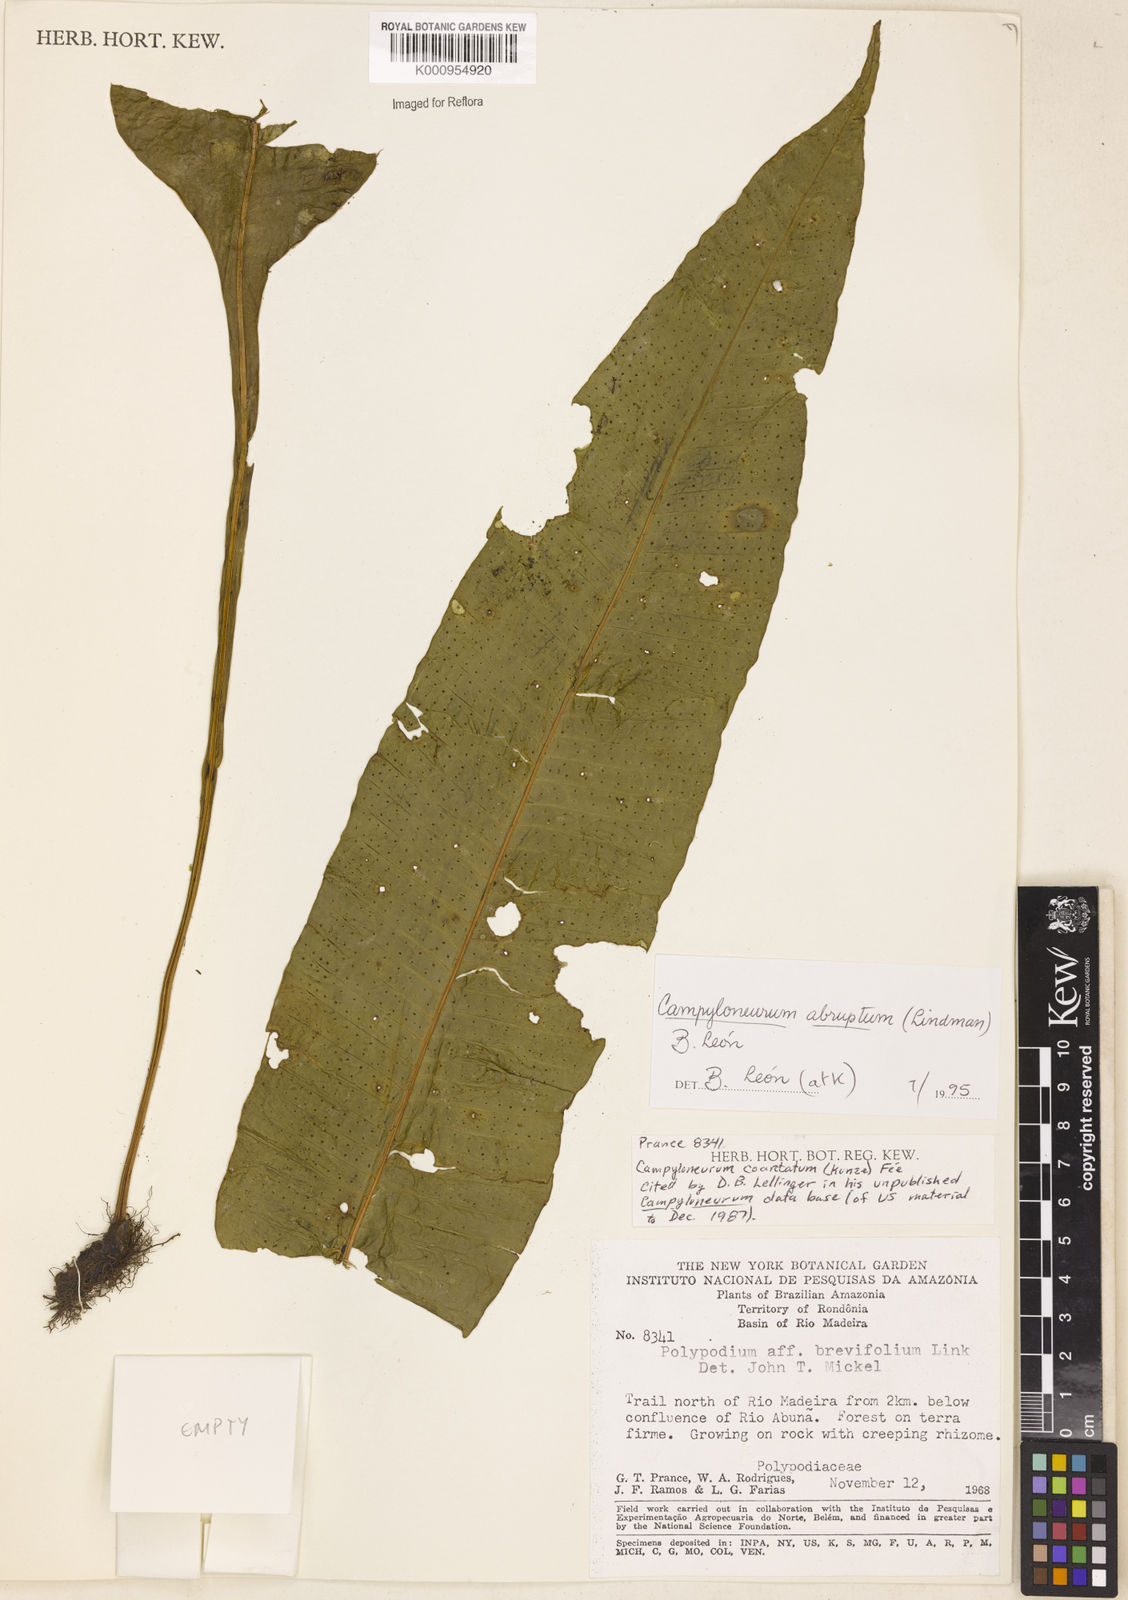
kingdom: Plantae
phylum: Tracheophyta
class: Polypodiopsida
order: Polypodiales
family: Polypodiaceae
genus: Campyloneurum
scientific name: Campyloneurum
